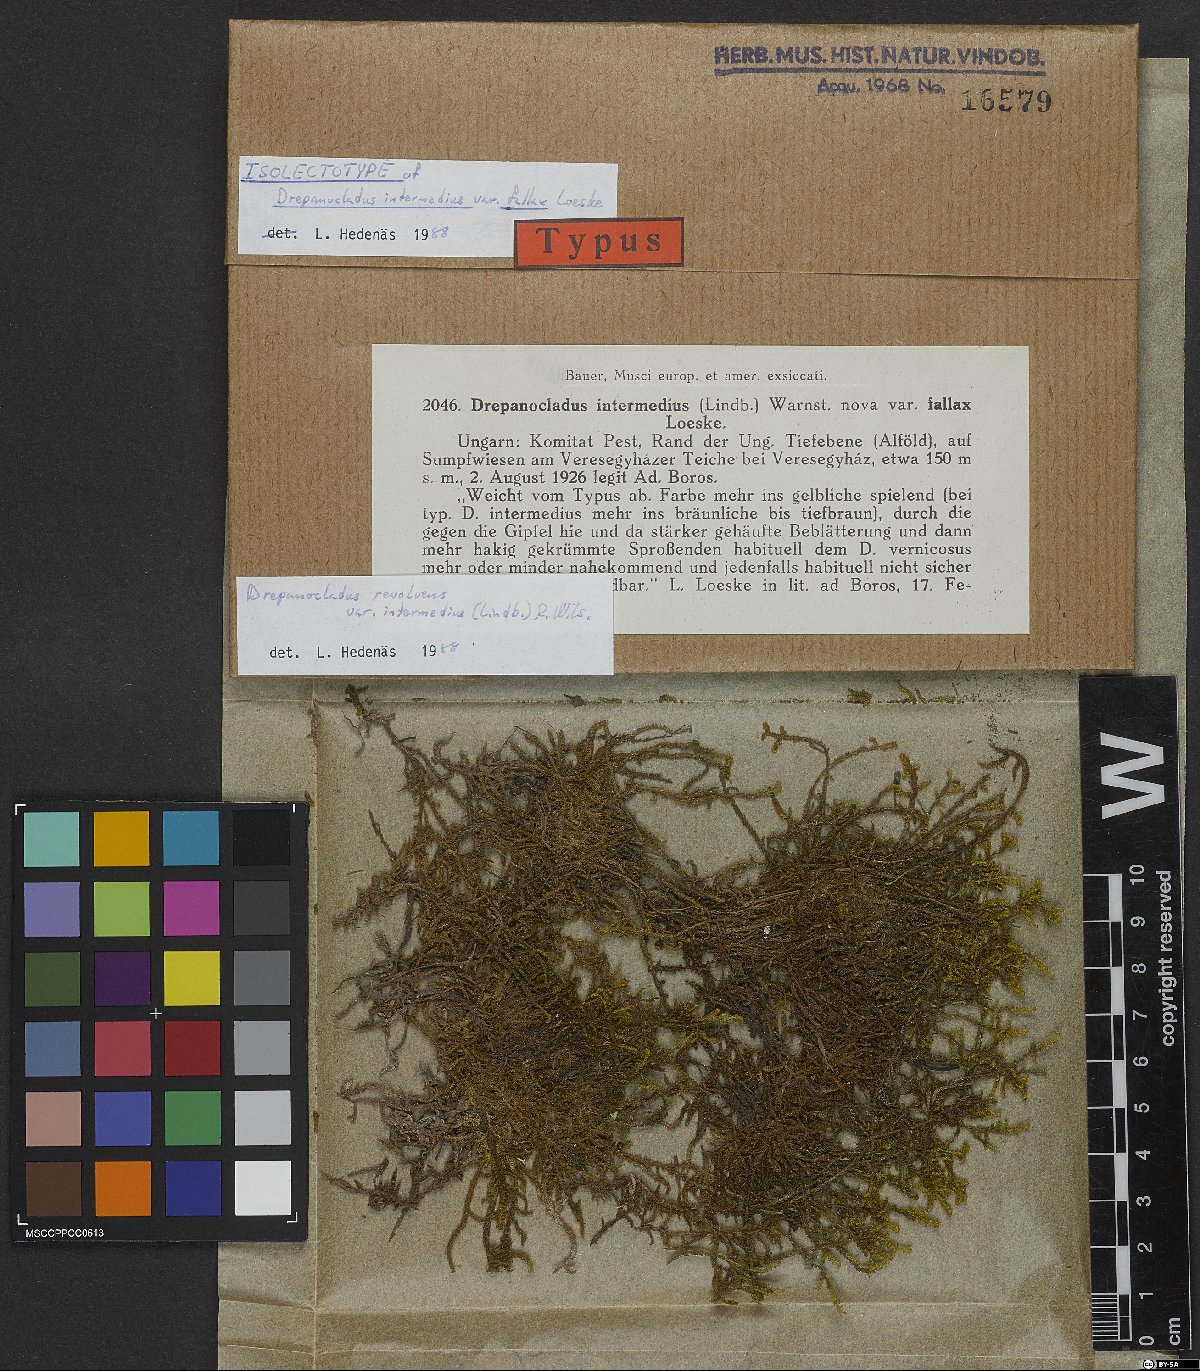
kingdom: Plantae
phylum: Bryophyta
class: Bryopsida
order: Hypnales
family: Scorpidiaceae
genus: Scorpidium
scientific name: Scorpidium cossonii
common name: Cosson's hook moss
